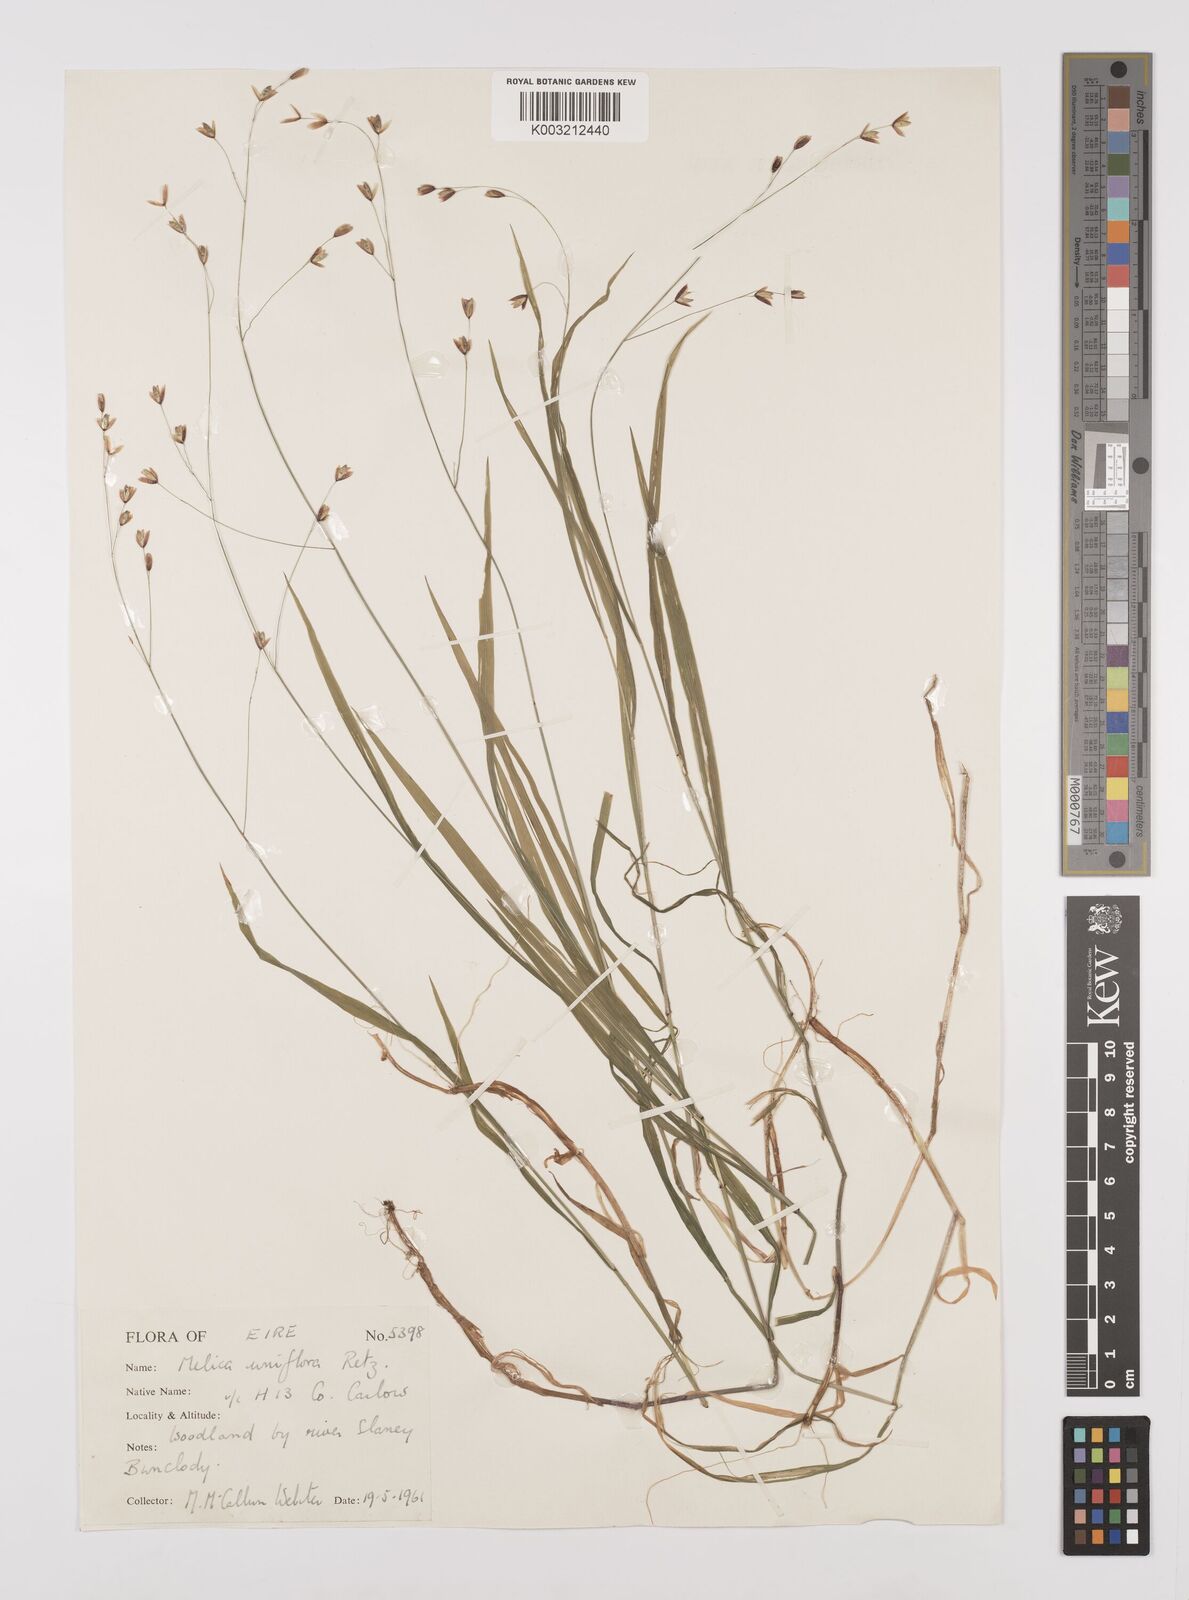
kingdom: Plantae
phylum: Tracheophyta
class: Liliopsida
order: Poales
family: Poaceae
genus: Melica
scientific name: Melica uniflora
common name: Wood melick
